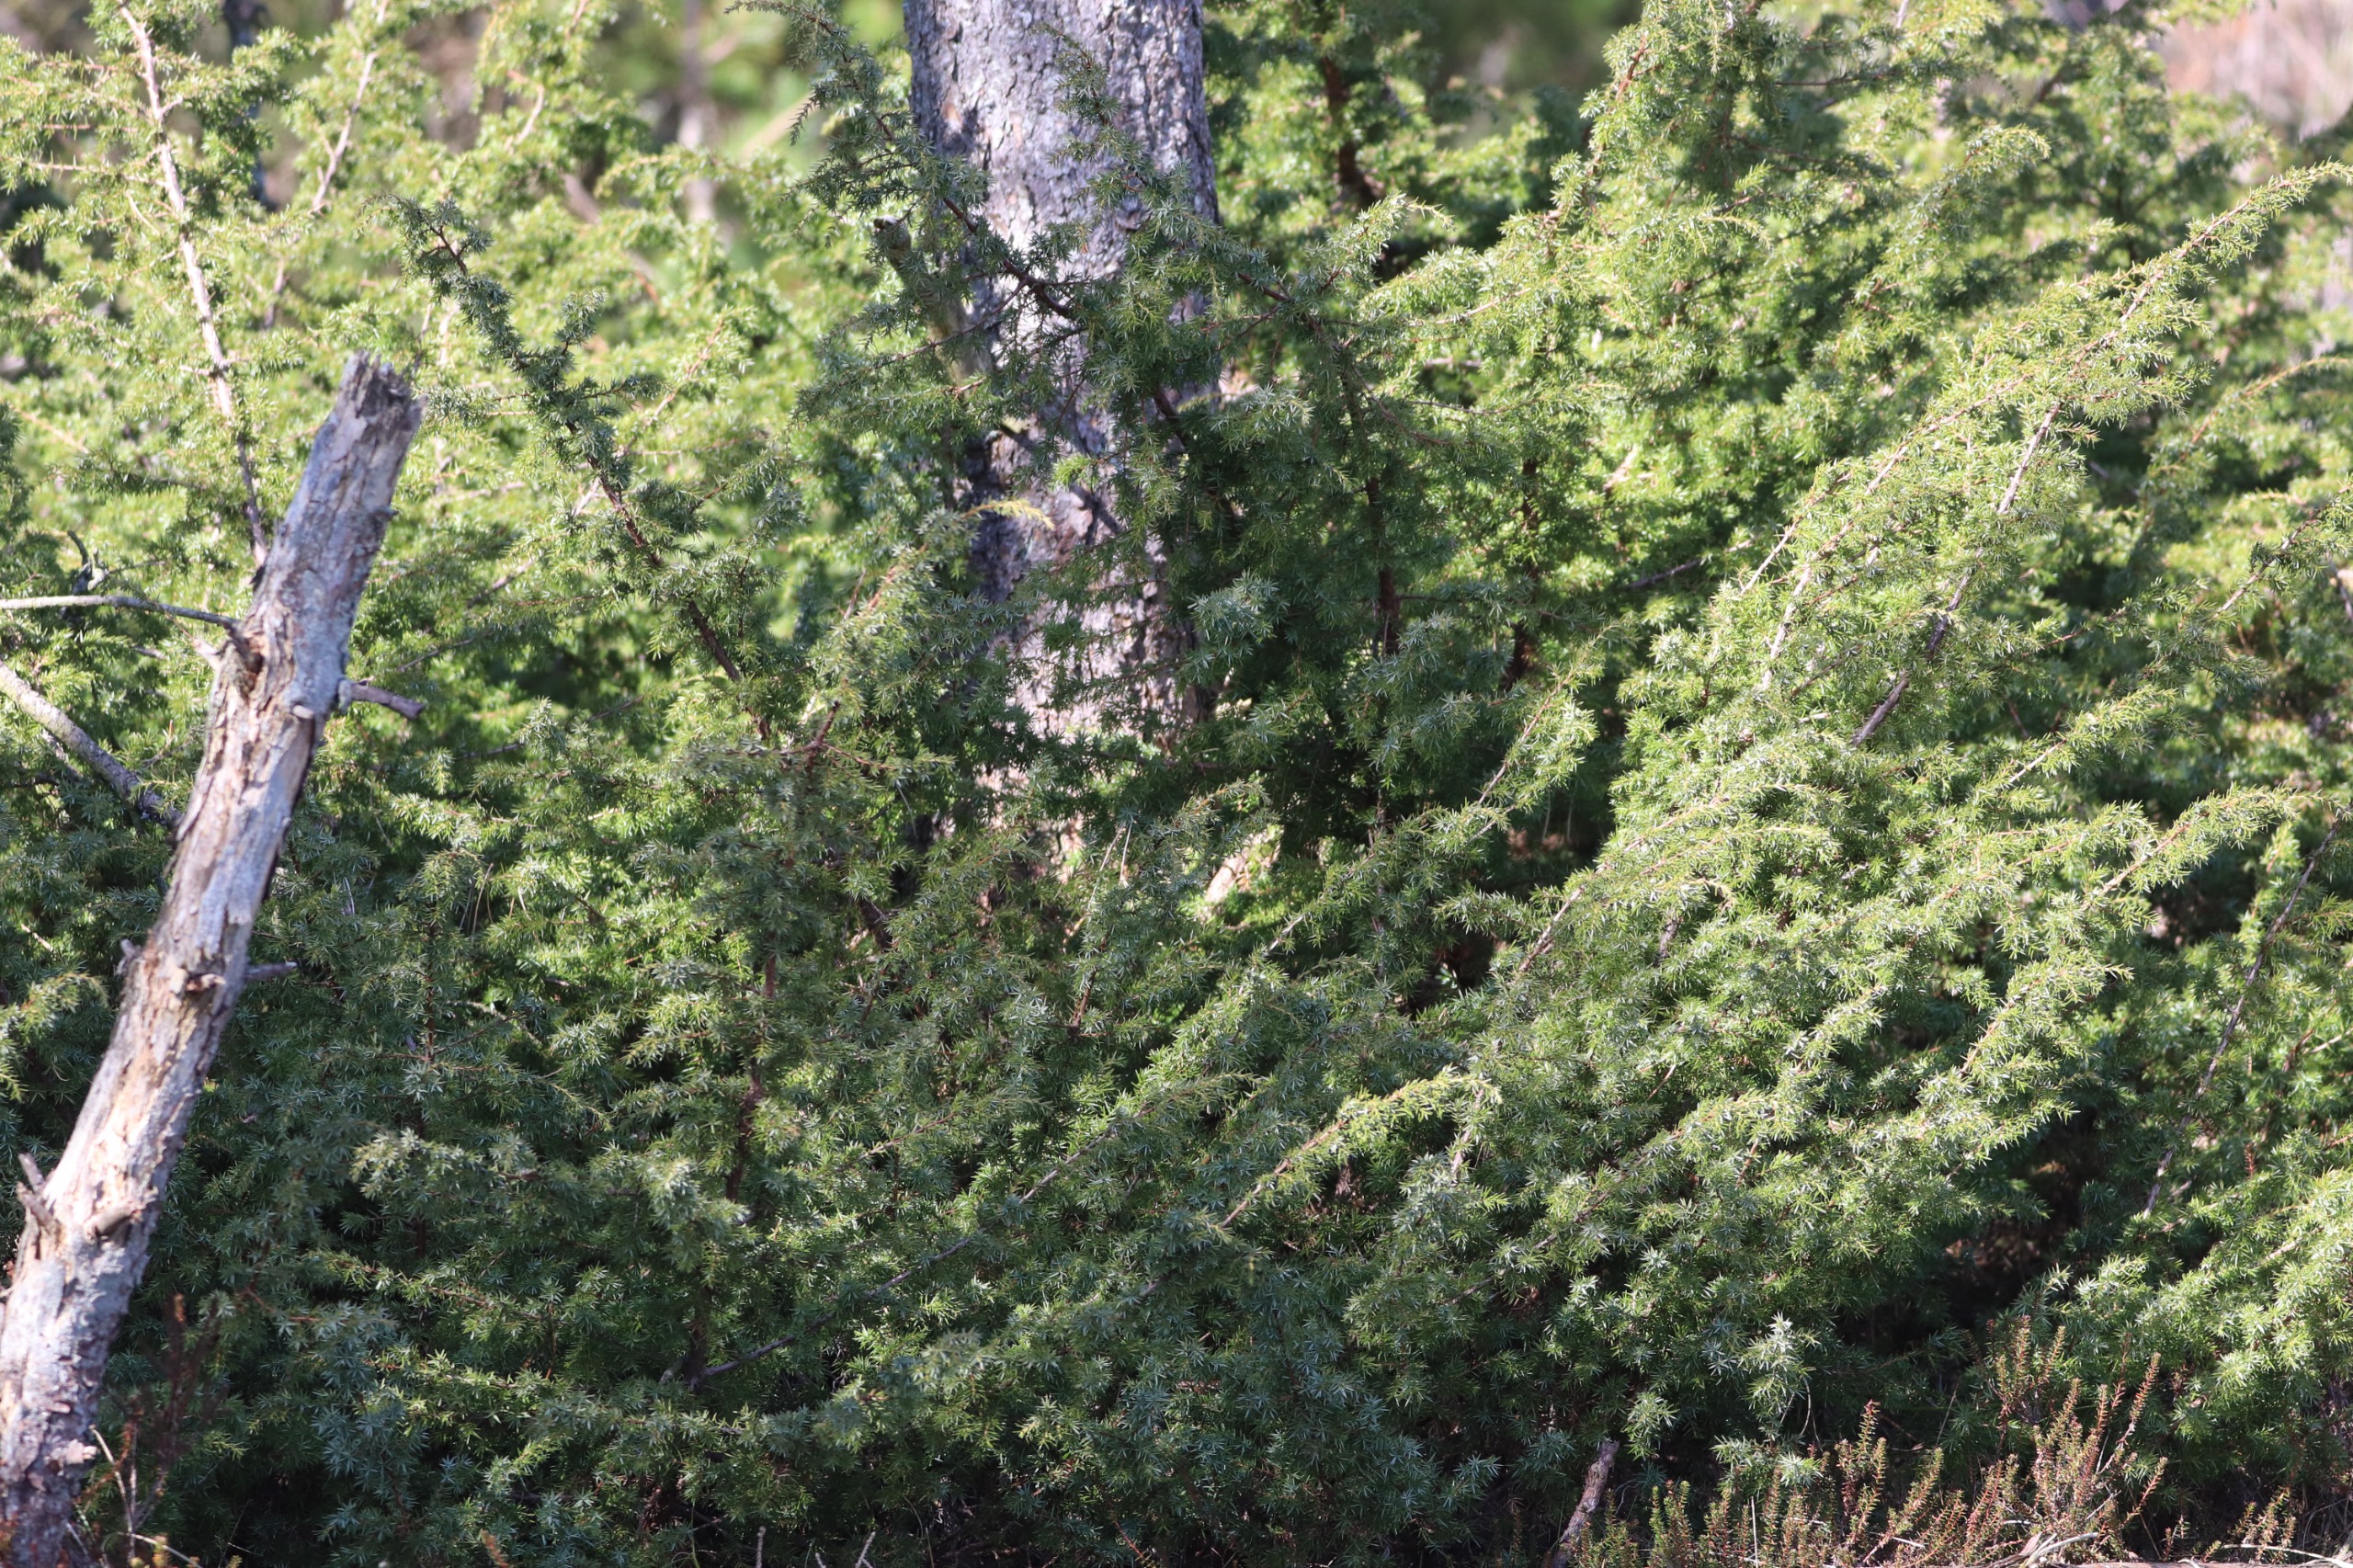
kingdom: Plantae
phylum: Tracheophyta
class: Pinopsida
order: Pinales
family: Cupressaceae
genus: Juniperus
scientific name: Juniperus communis
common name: Almindelig ene
